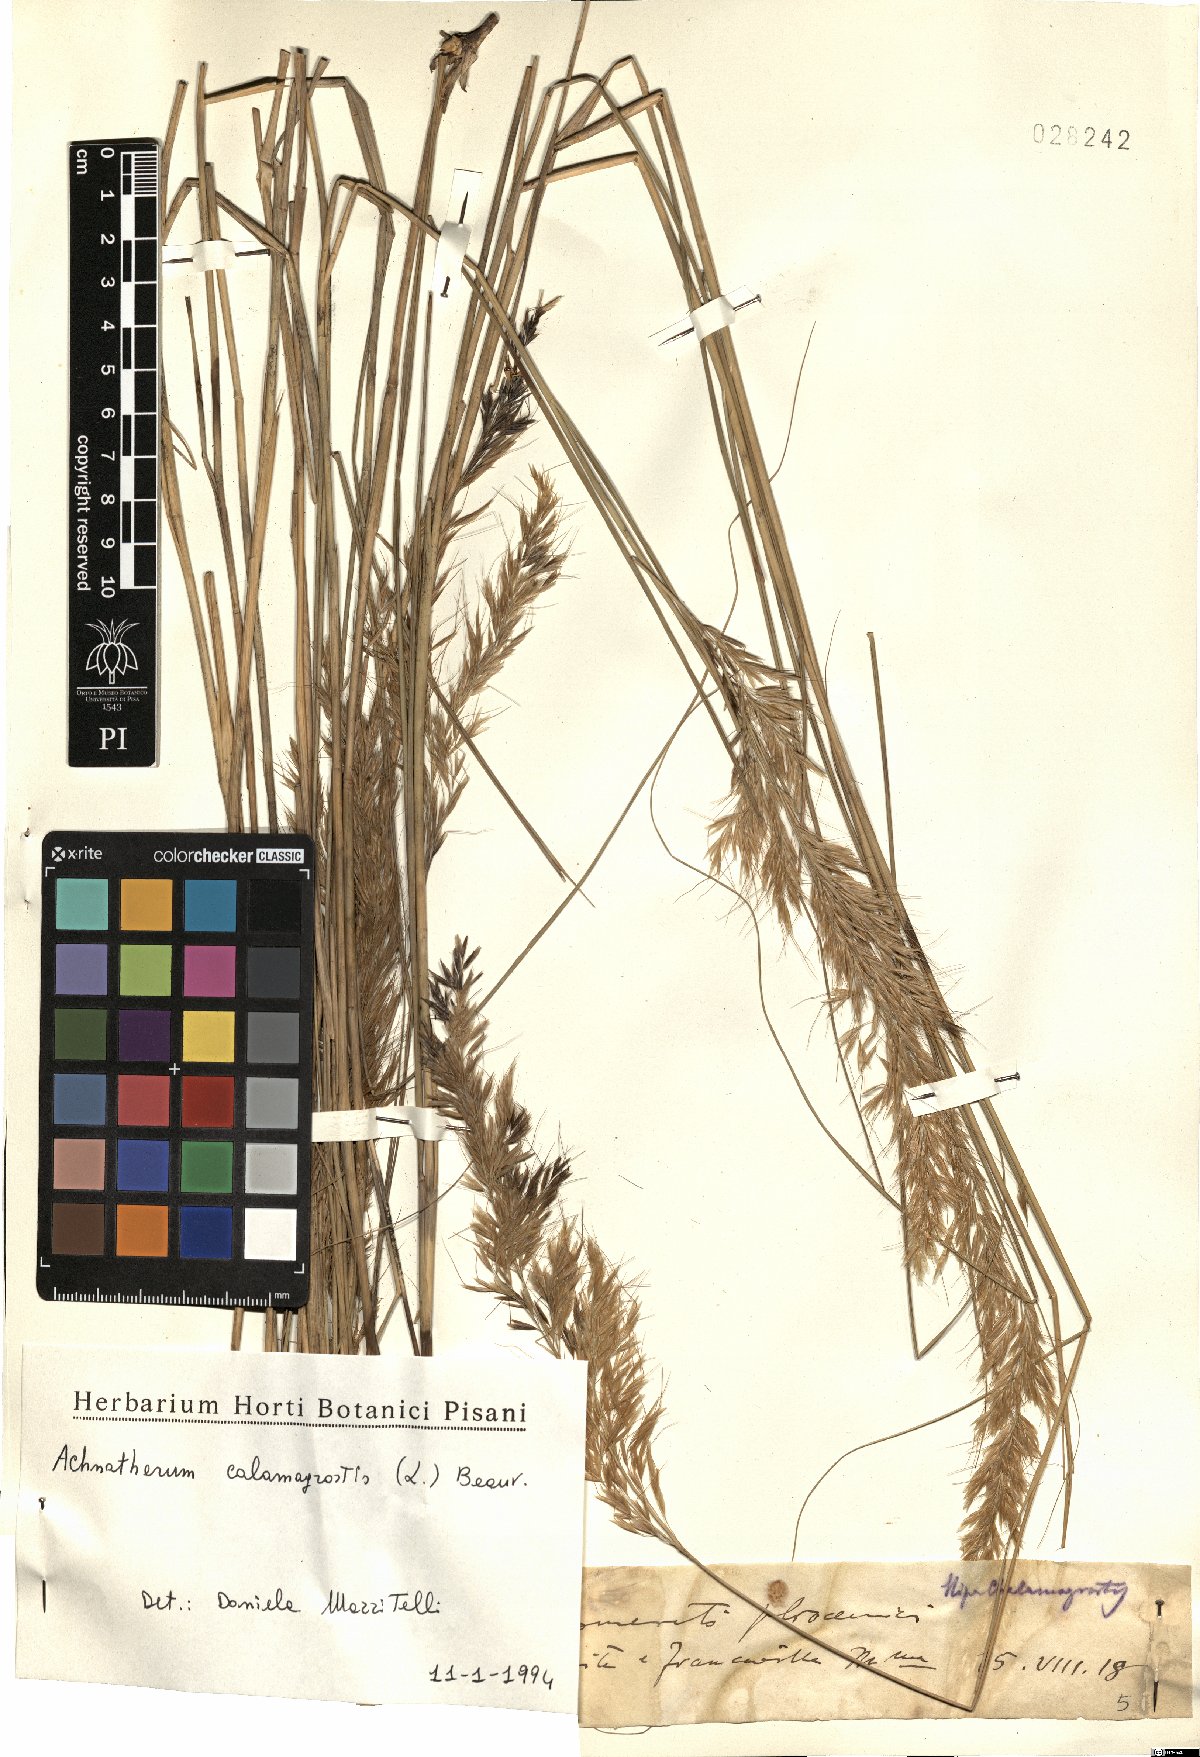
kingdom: Plantae
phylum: Tracheophyta
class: Liliopsida
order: Poales
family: Poaceae
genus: Achnatherum
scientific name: Achnatherum calamagrostis
